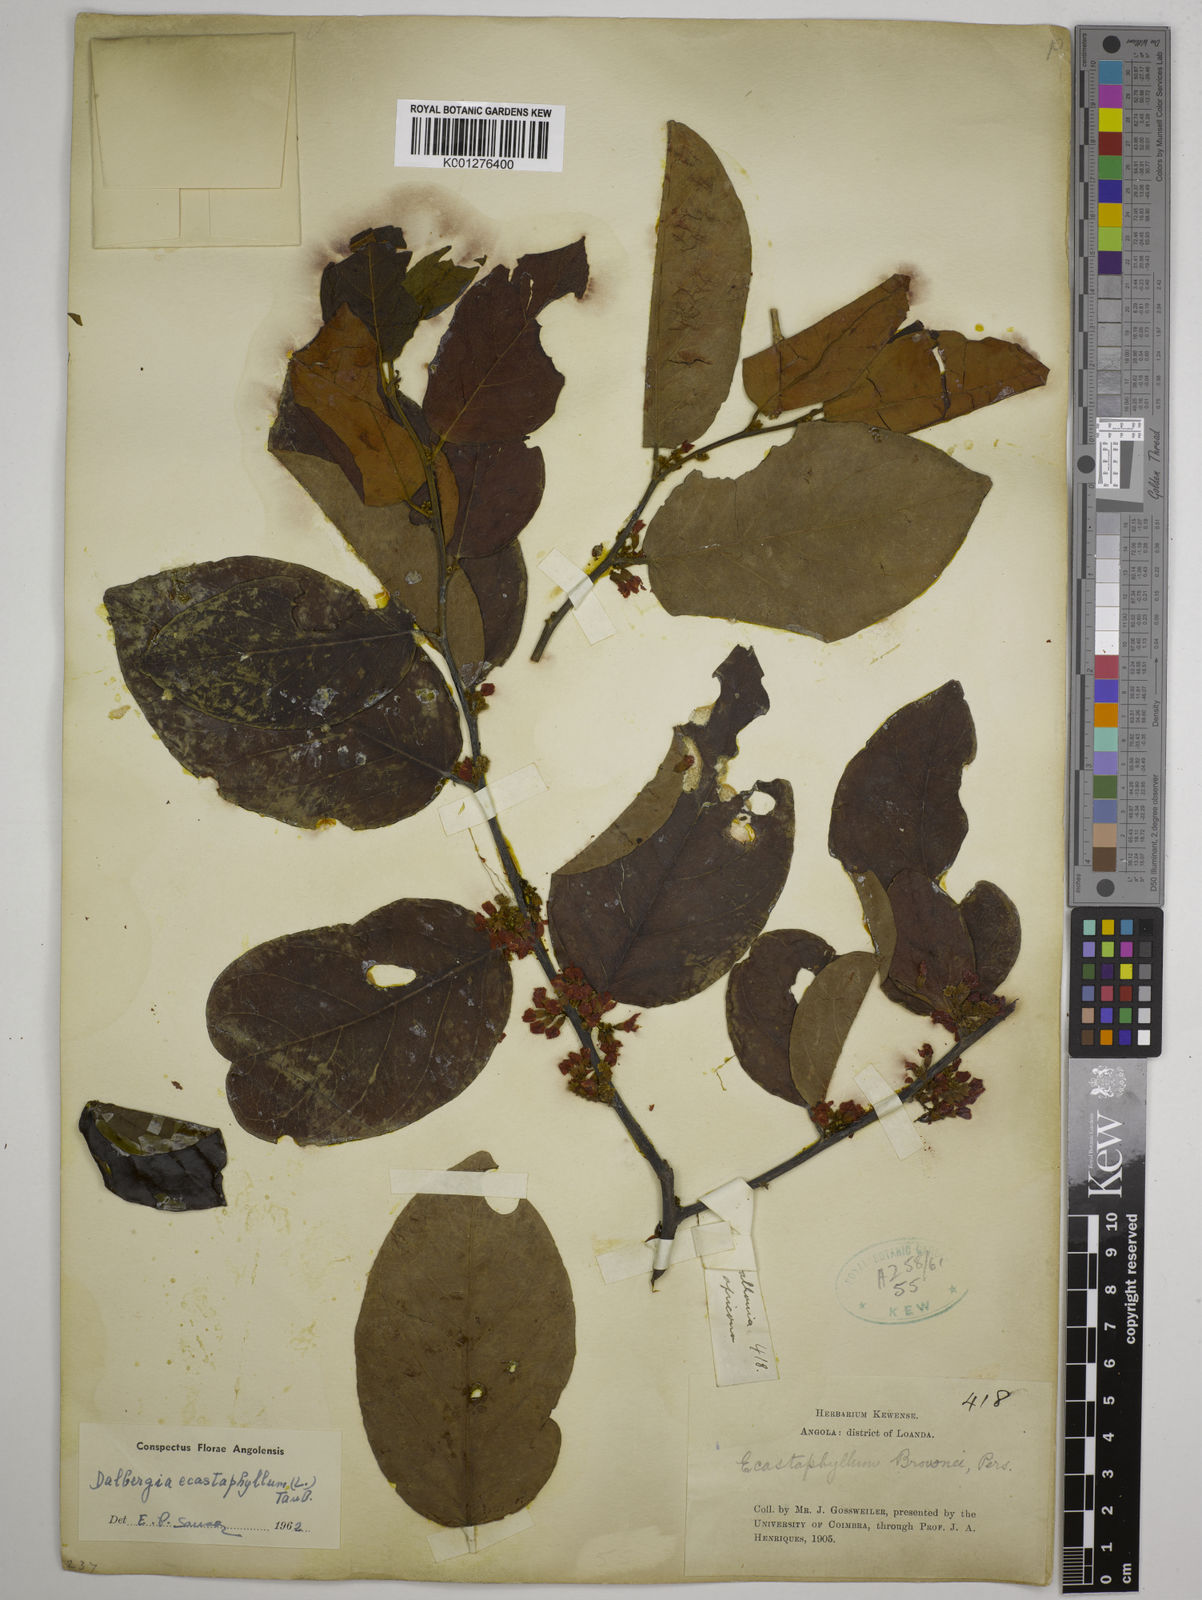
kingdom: Plantae
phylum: Tracheophyta
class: Magnoliopsida
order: Fabales
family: Fabaceae
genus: Dalbergia
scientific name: Dalbergia ecastaphyllum
